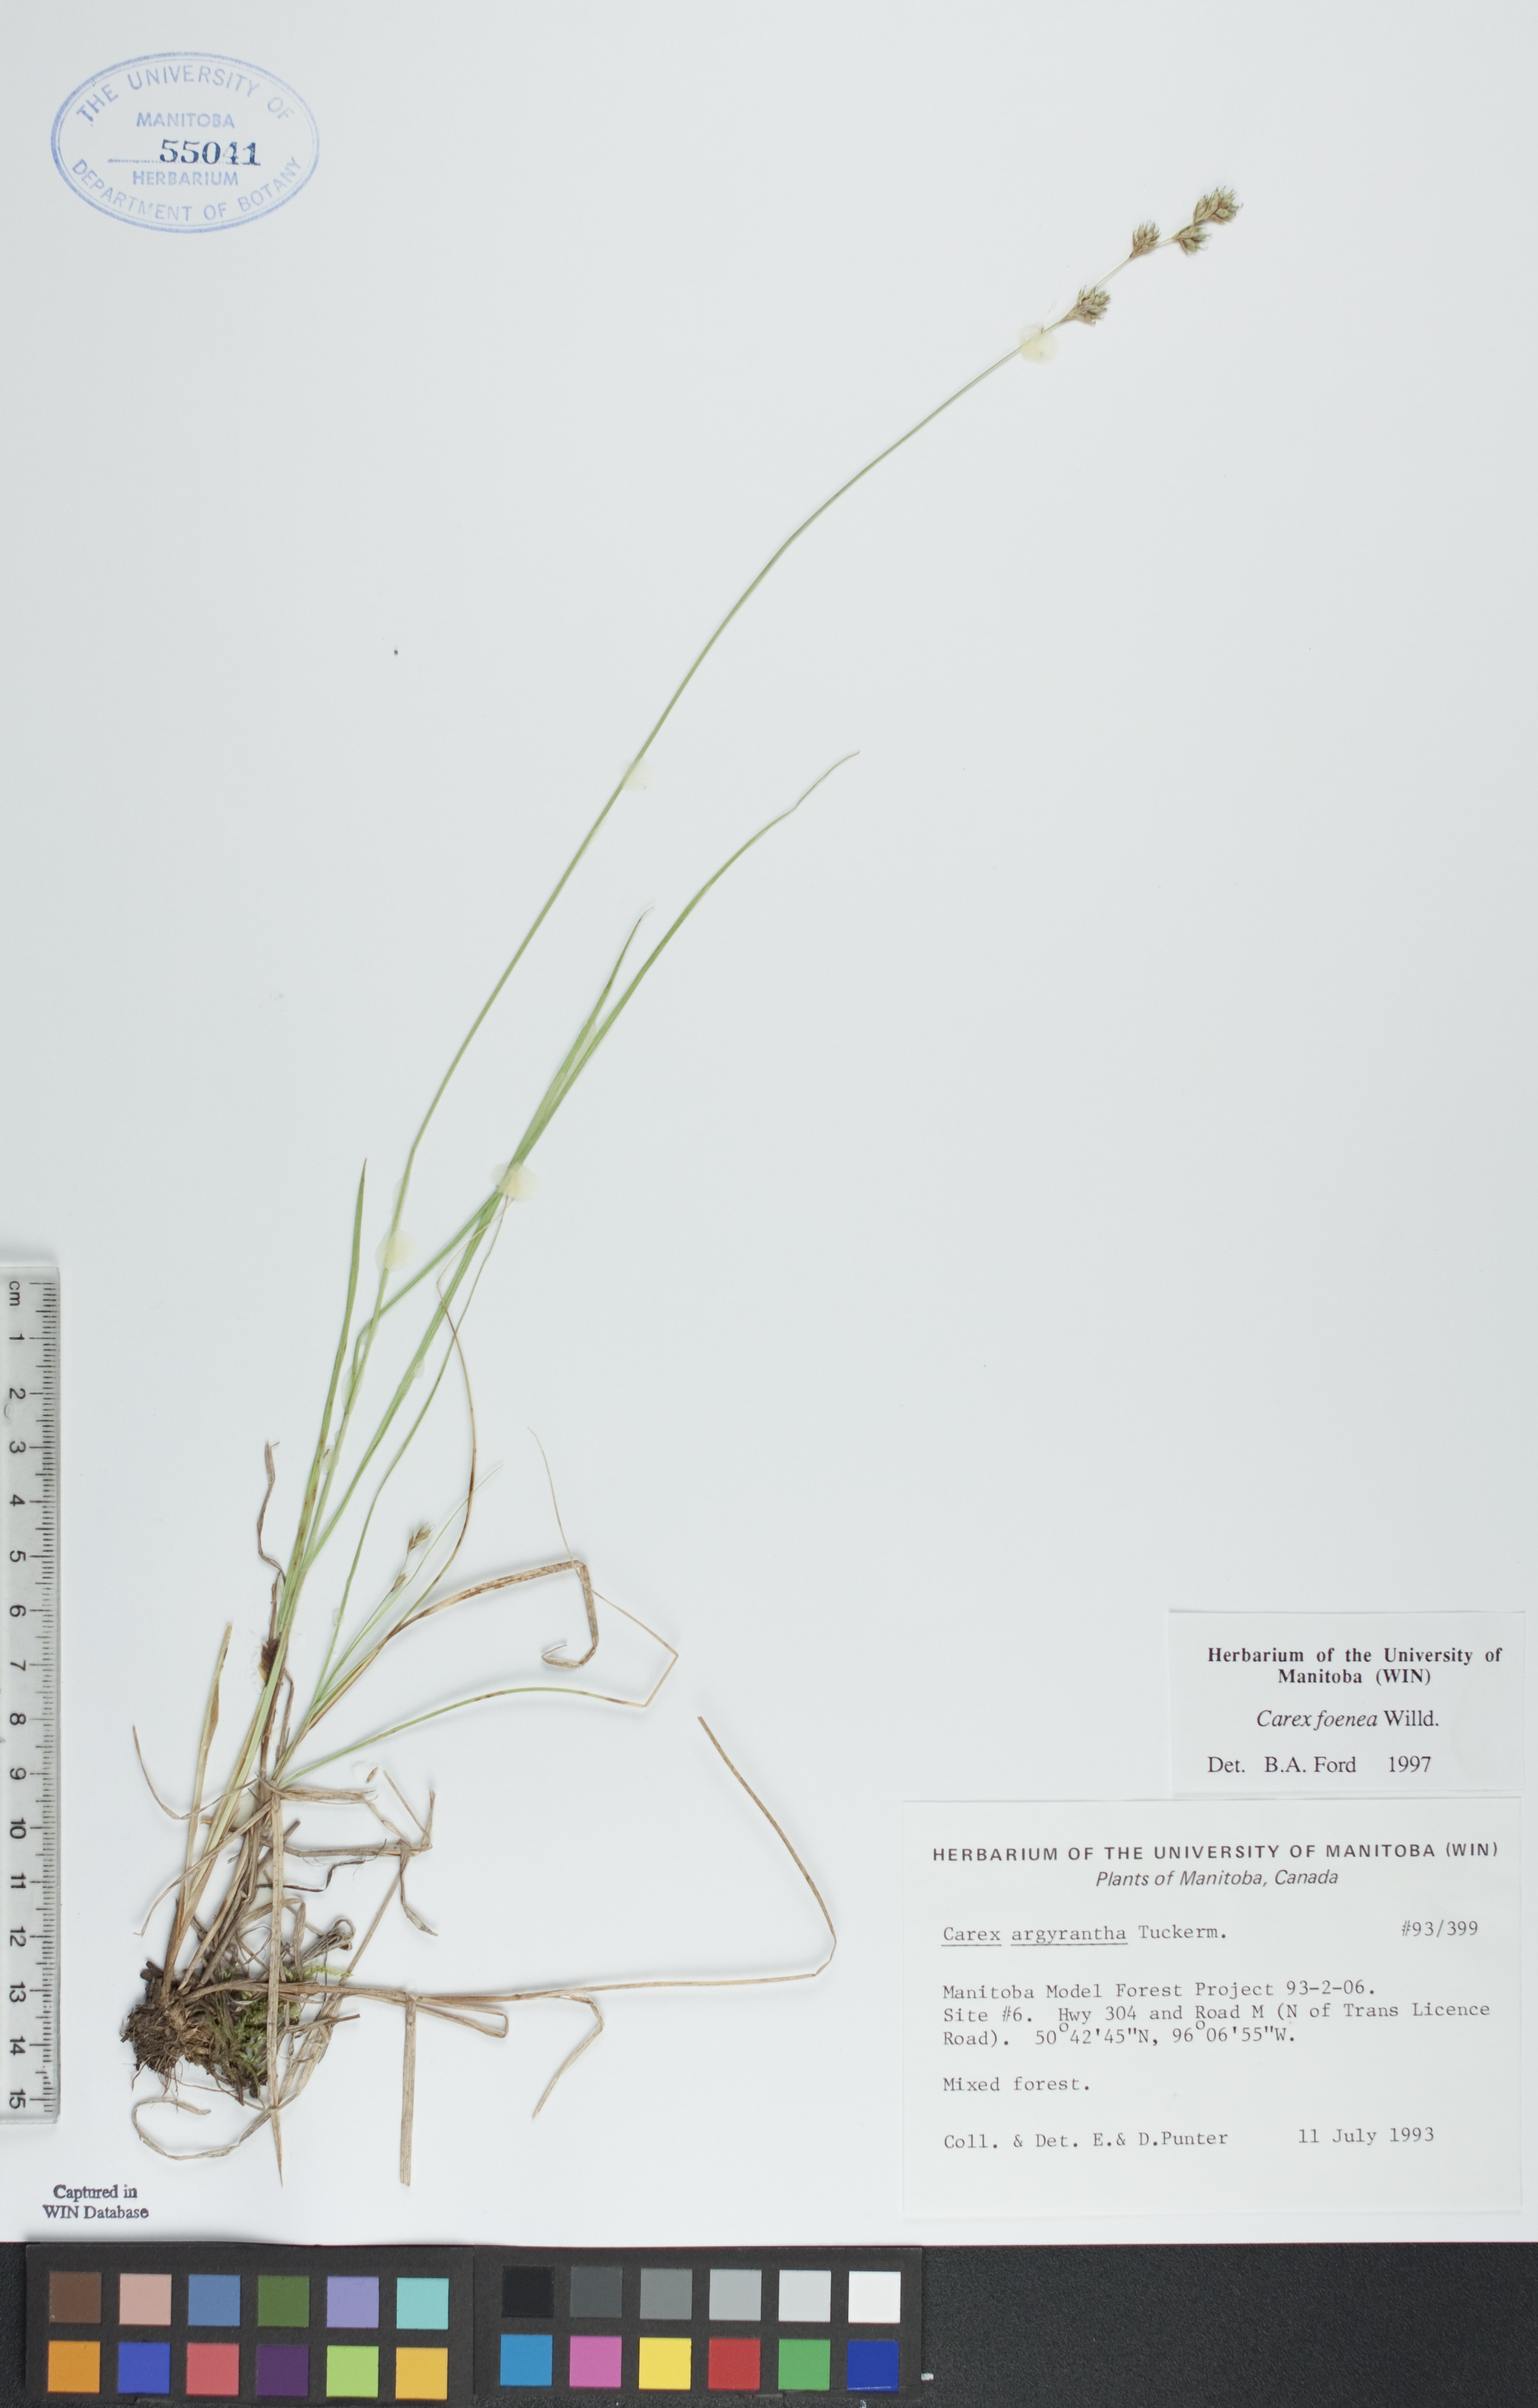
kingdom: Plantae
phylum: Tracheophyta
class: Liliopsida
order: Poales
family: Cyperaceae
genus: Carex
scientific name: Carex foenea
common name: Bronze sedge
